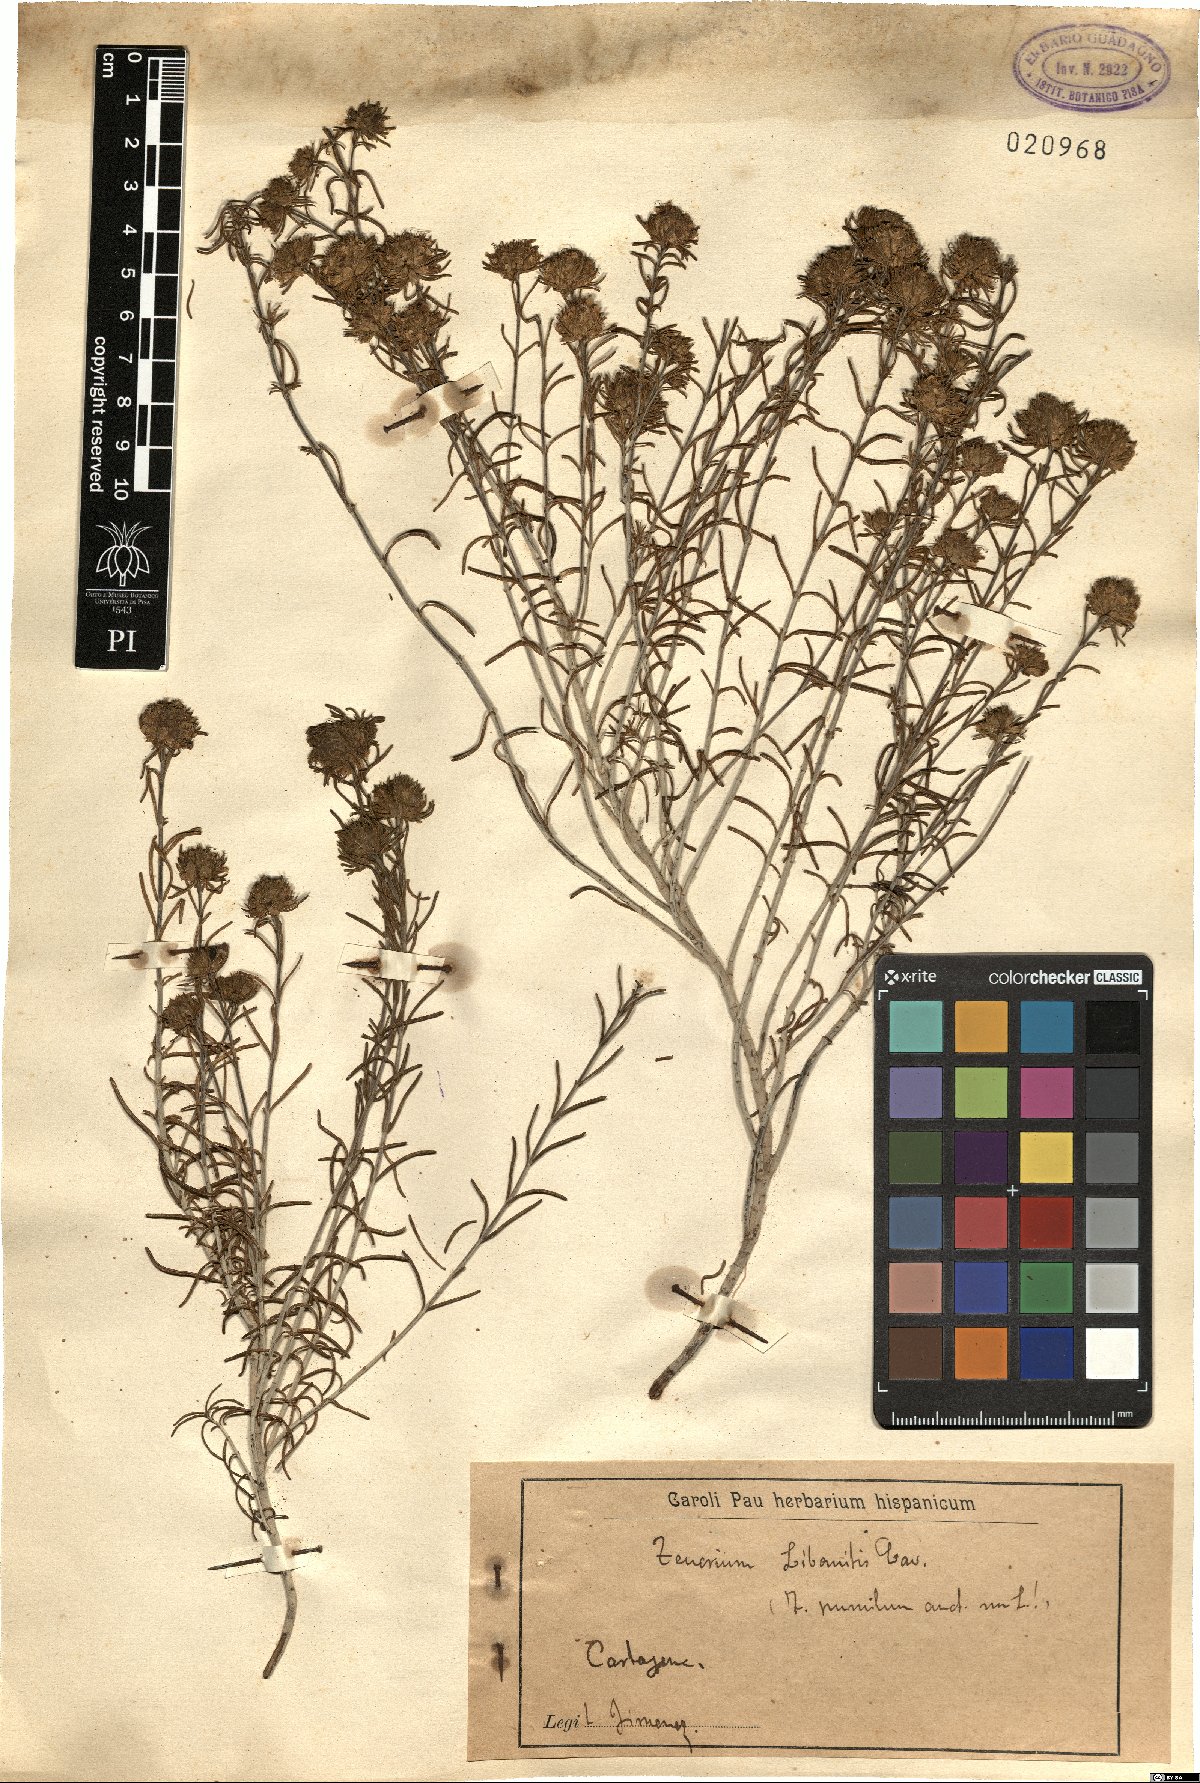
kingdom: Plantae
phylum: Tracheophyta
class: Magnoliopsida
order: Lamiales
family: Lamiaceae
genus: Teucrium
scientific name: Teucrium libanitis
